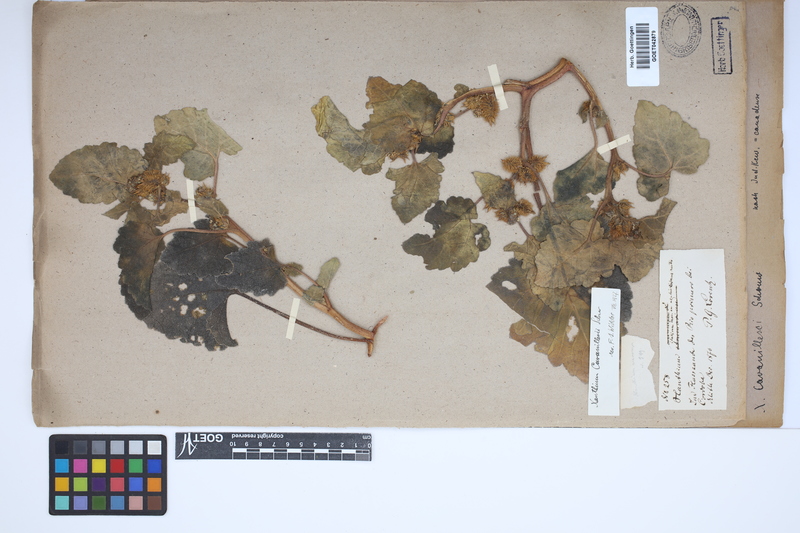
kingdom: Plantae
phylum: Tracheophyta
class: Magnoliopsida
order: Asterales
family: Asteraceae
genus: Xanthium
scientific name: Xanthium orientale
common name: Californian burr
